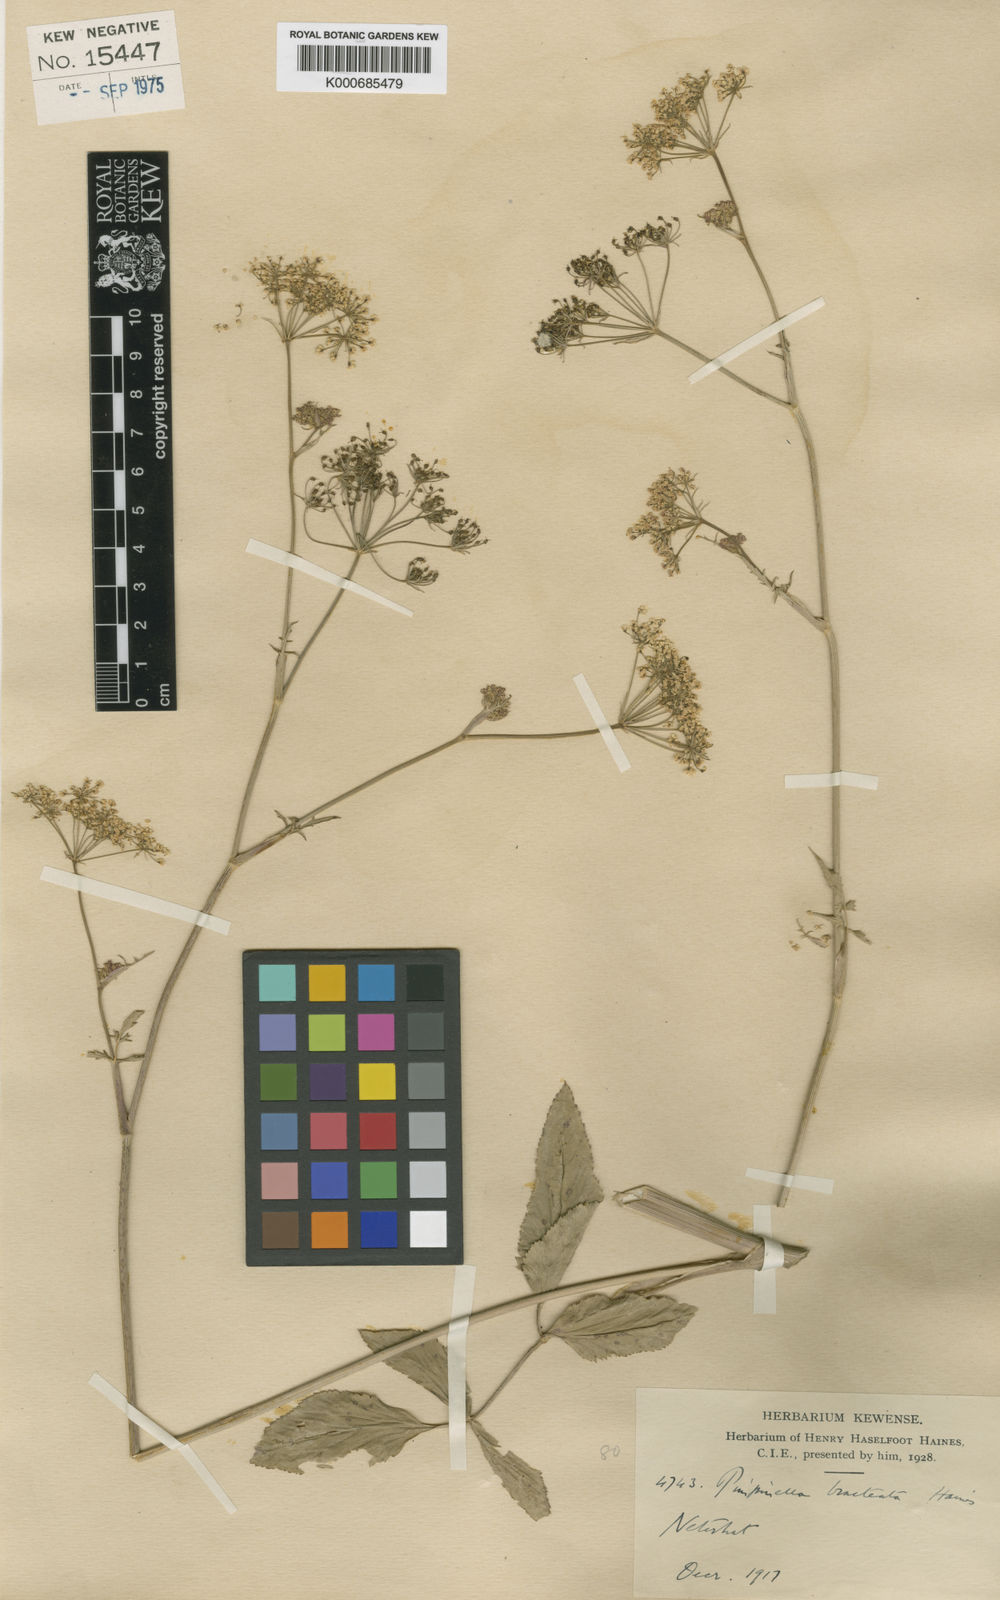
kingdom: Plantae
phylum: Tracheophyta
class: Magnoliopsida
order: Apiales
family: Apiaceae
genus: Pimpinella
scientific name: Pimpinella bracteata
